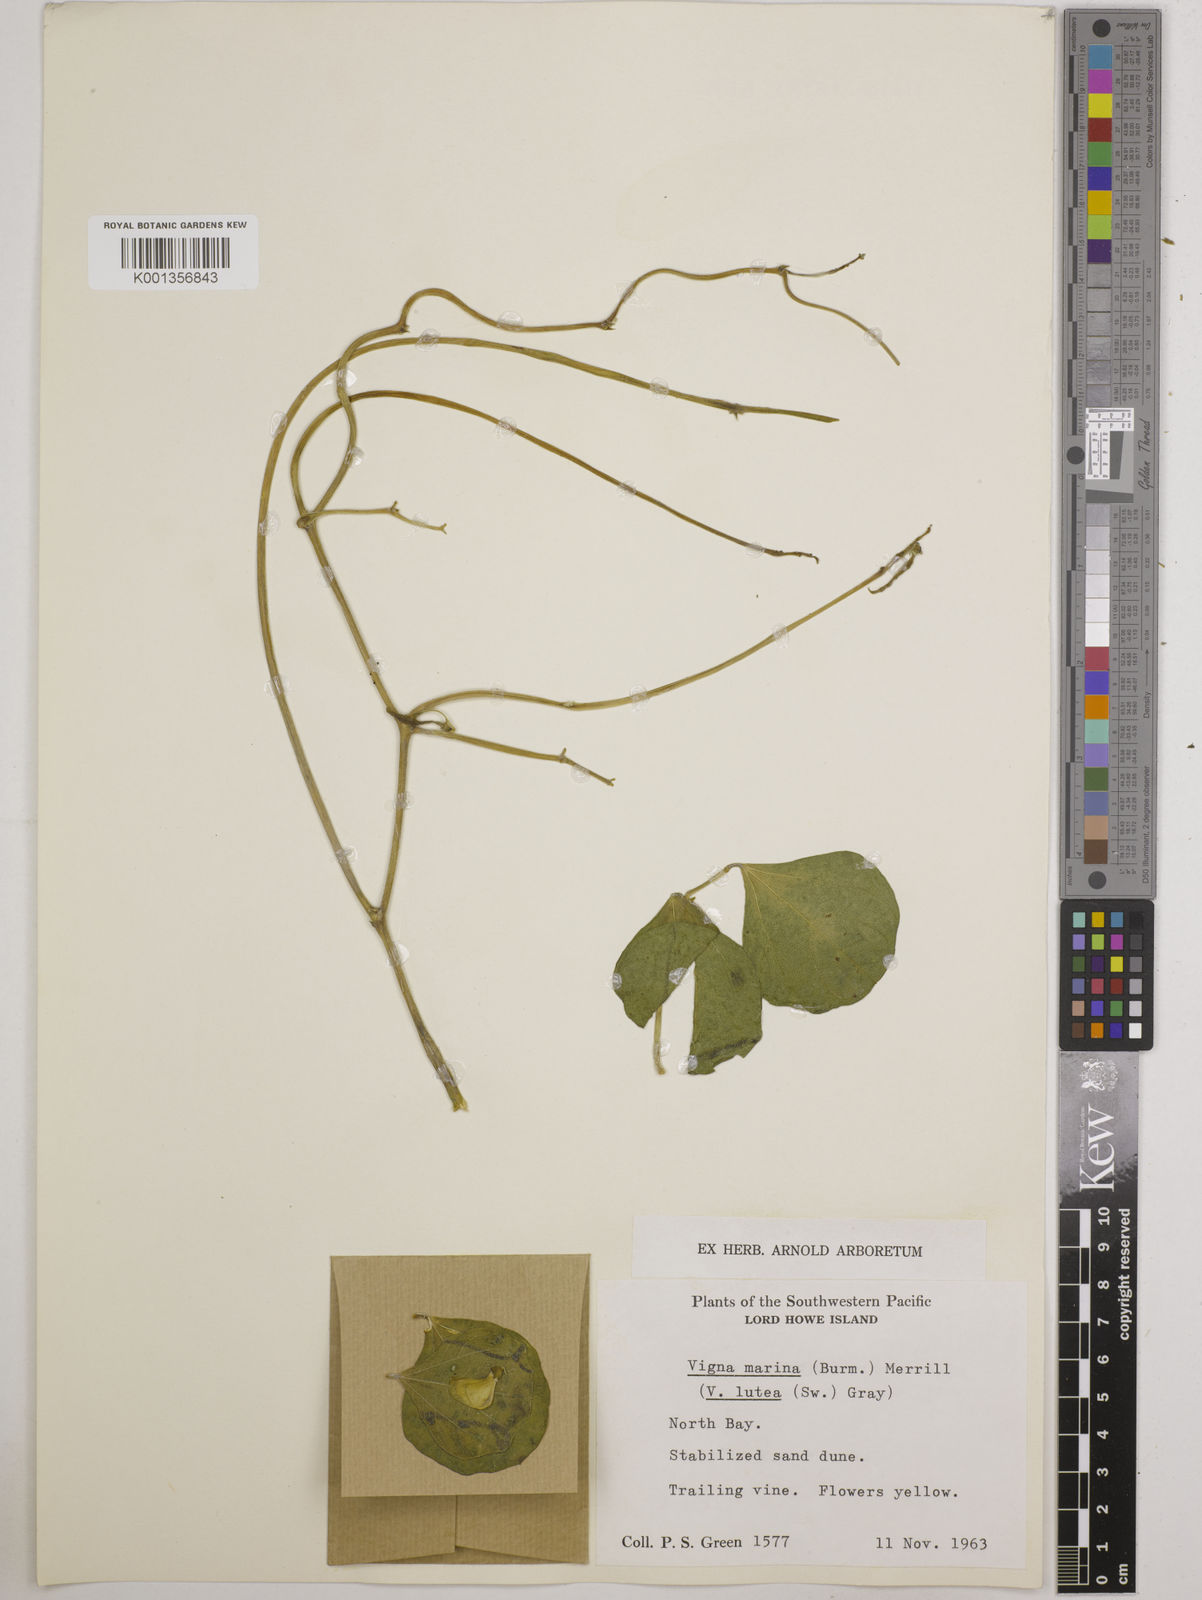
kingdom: Plantae
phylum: Tracheophyta
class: Magnoliopsida
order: Fabales
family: Fabaceae
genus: Vigna
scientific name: Vigna marina
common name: Dune-bean
